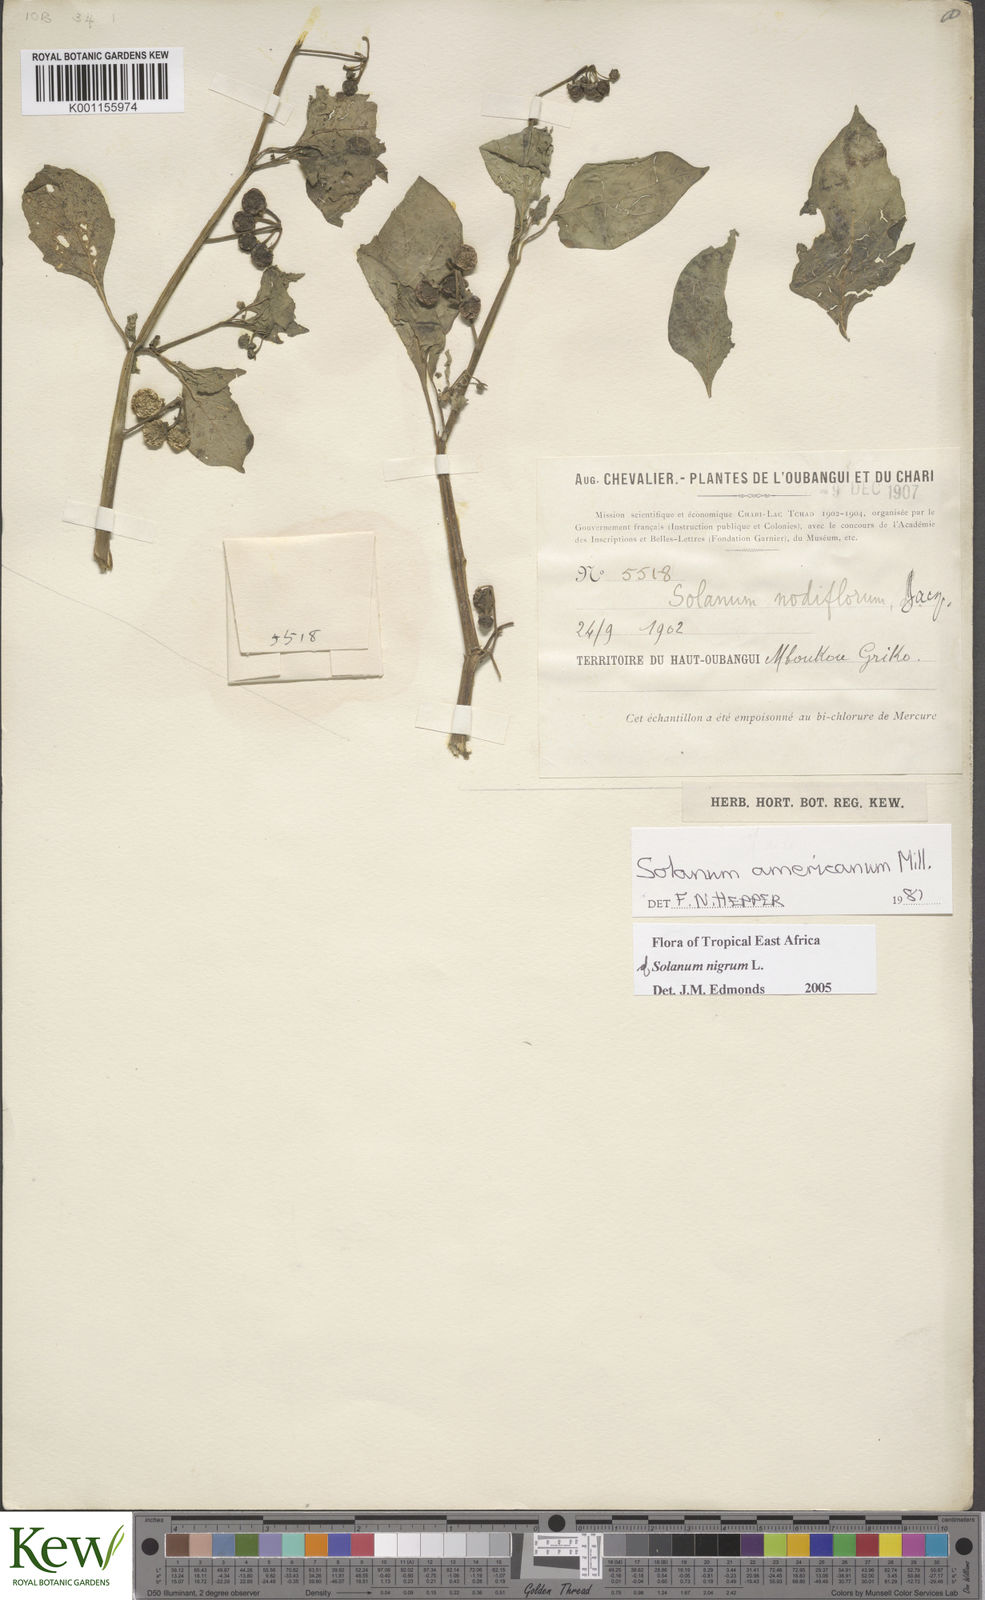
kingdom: Plantae
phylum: Tracheophyta
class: Magnoliopsida
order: Solanales
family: Solanaceae
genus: Solanum
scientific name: Solanum scabrum
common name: Garden-huckleberry
